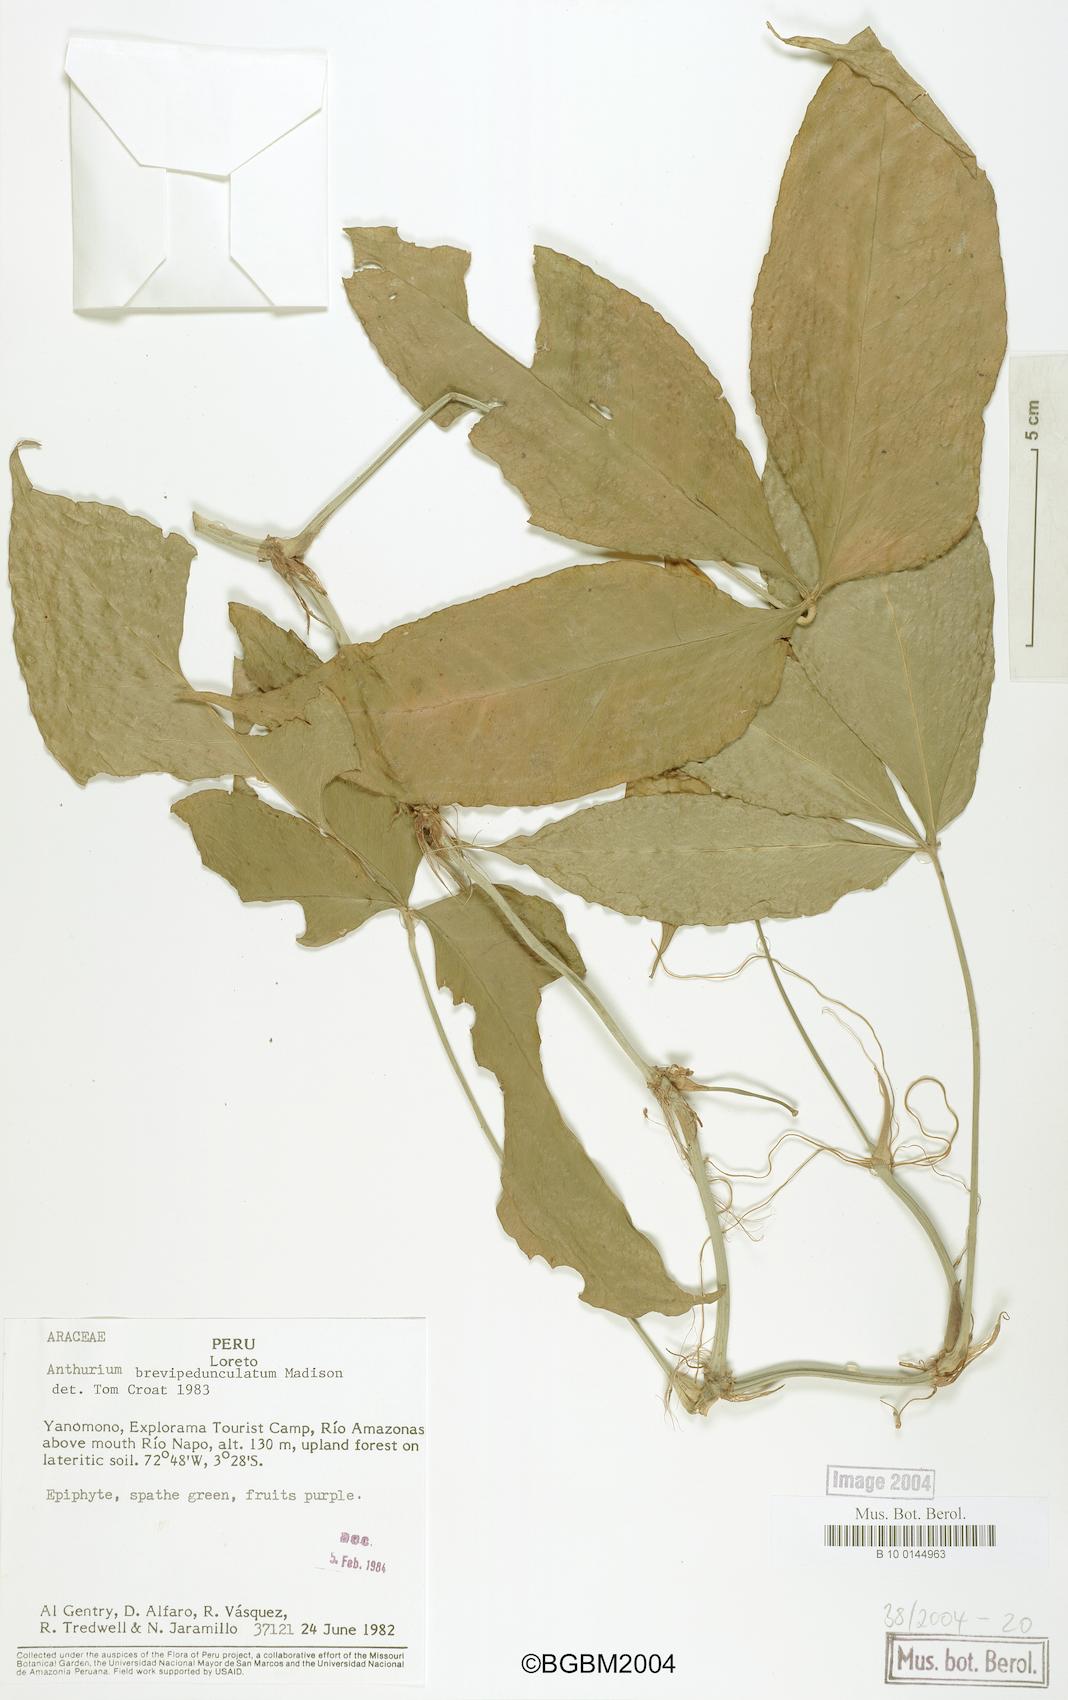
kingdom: Plantae
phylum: Tracheophyta
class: Liliopsida
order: Alismatales
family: Araceae
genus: Anthurium
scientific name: Anthurium brevipedunculatum
